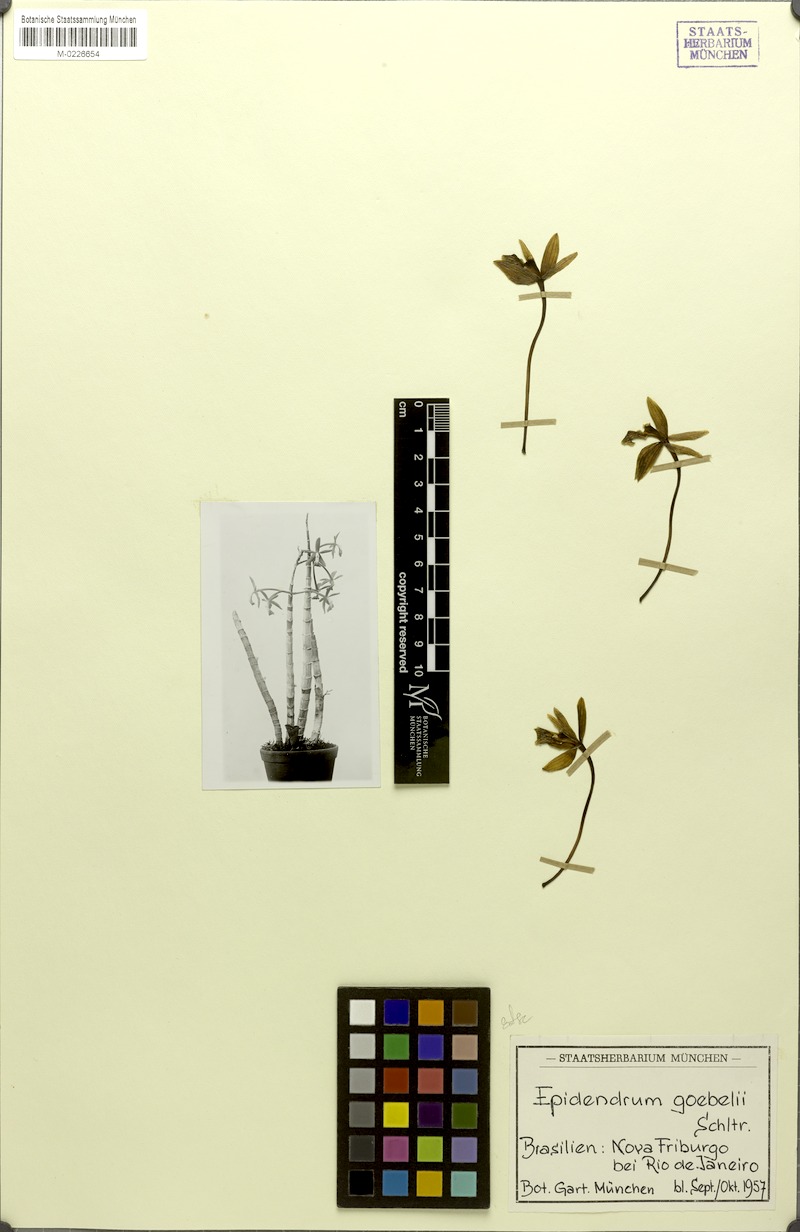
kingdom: Plantae
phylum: Tracheophyta
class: Liliopsida
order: Asparagales
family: Orchidaceae
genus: Epidendrum
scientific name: Epidendrum goebelii
